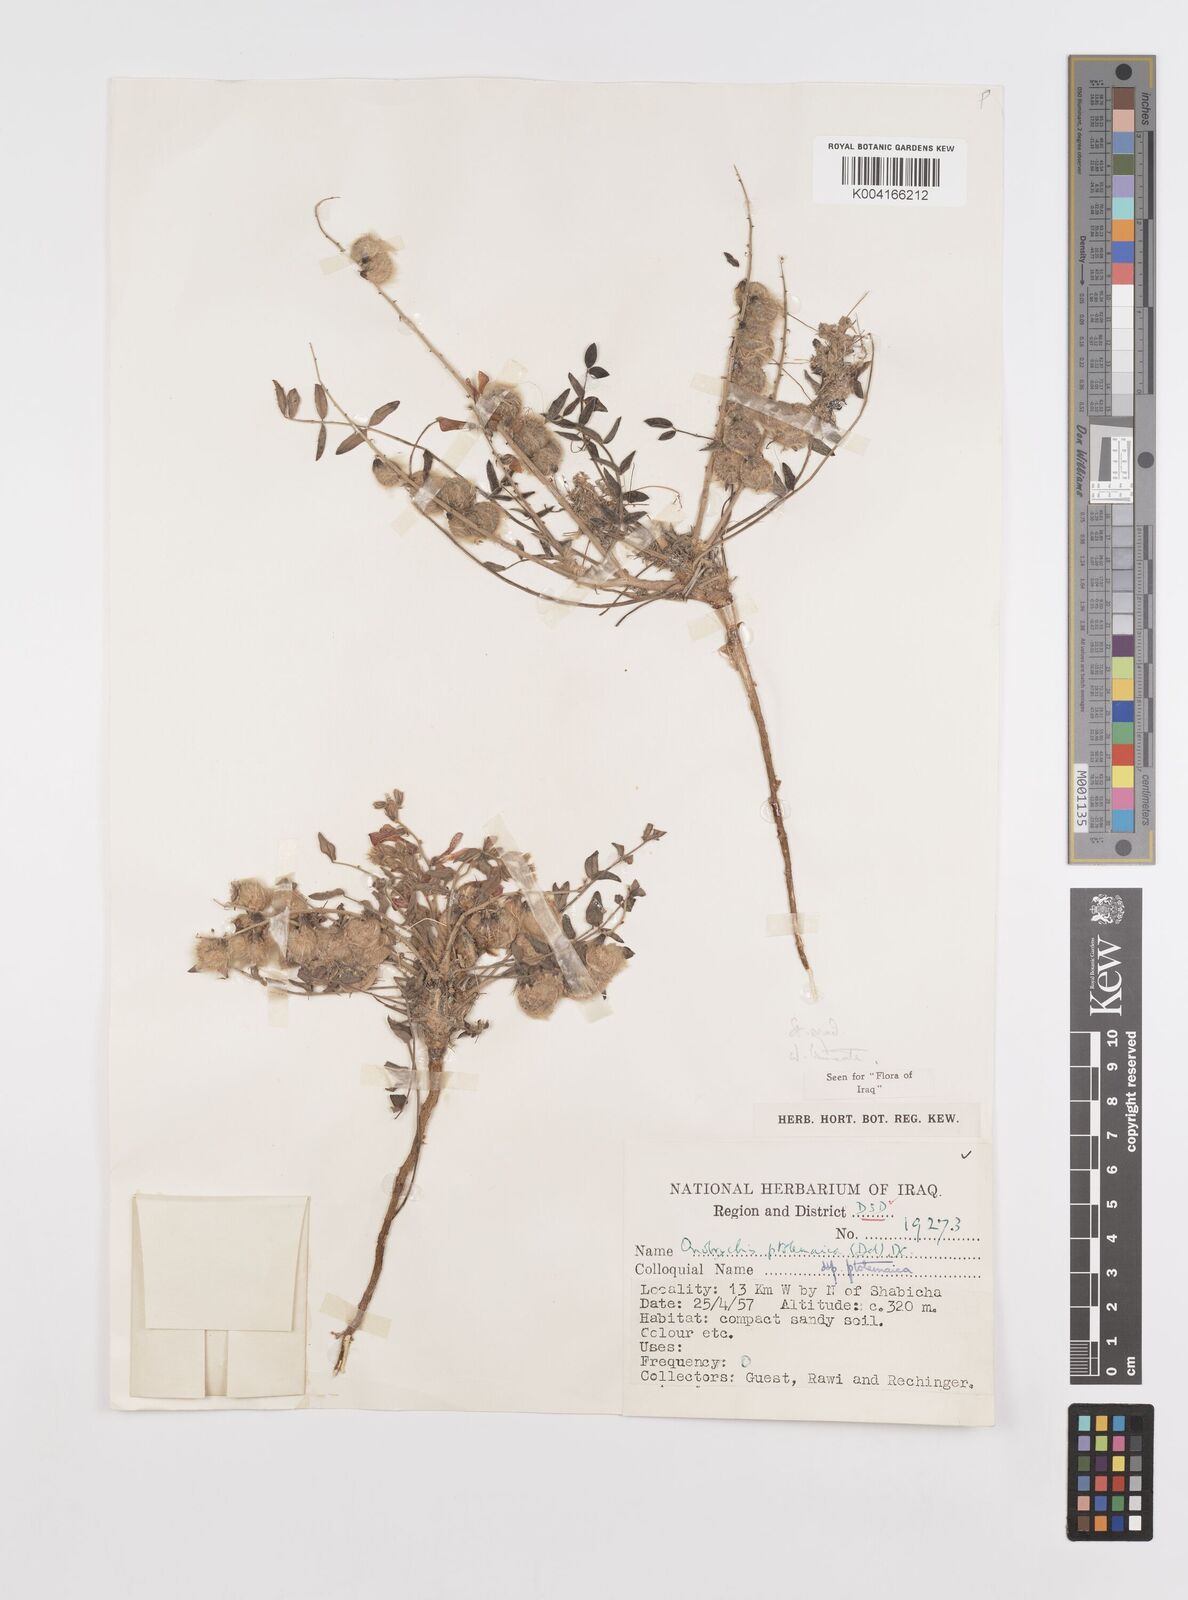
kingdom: Plantae
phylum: Tracheophyta
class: Magnoliopsida
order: Fabales
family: Fabaceae
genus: Onobrychis
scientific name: Onobrychis ptolemaica
